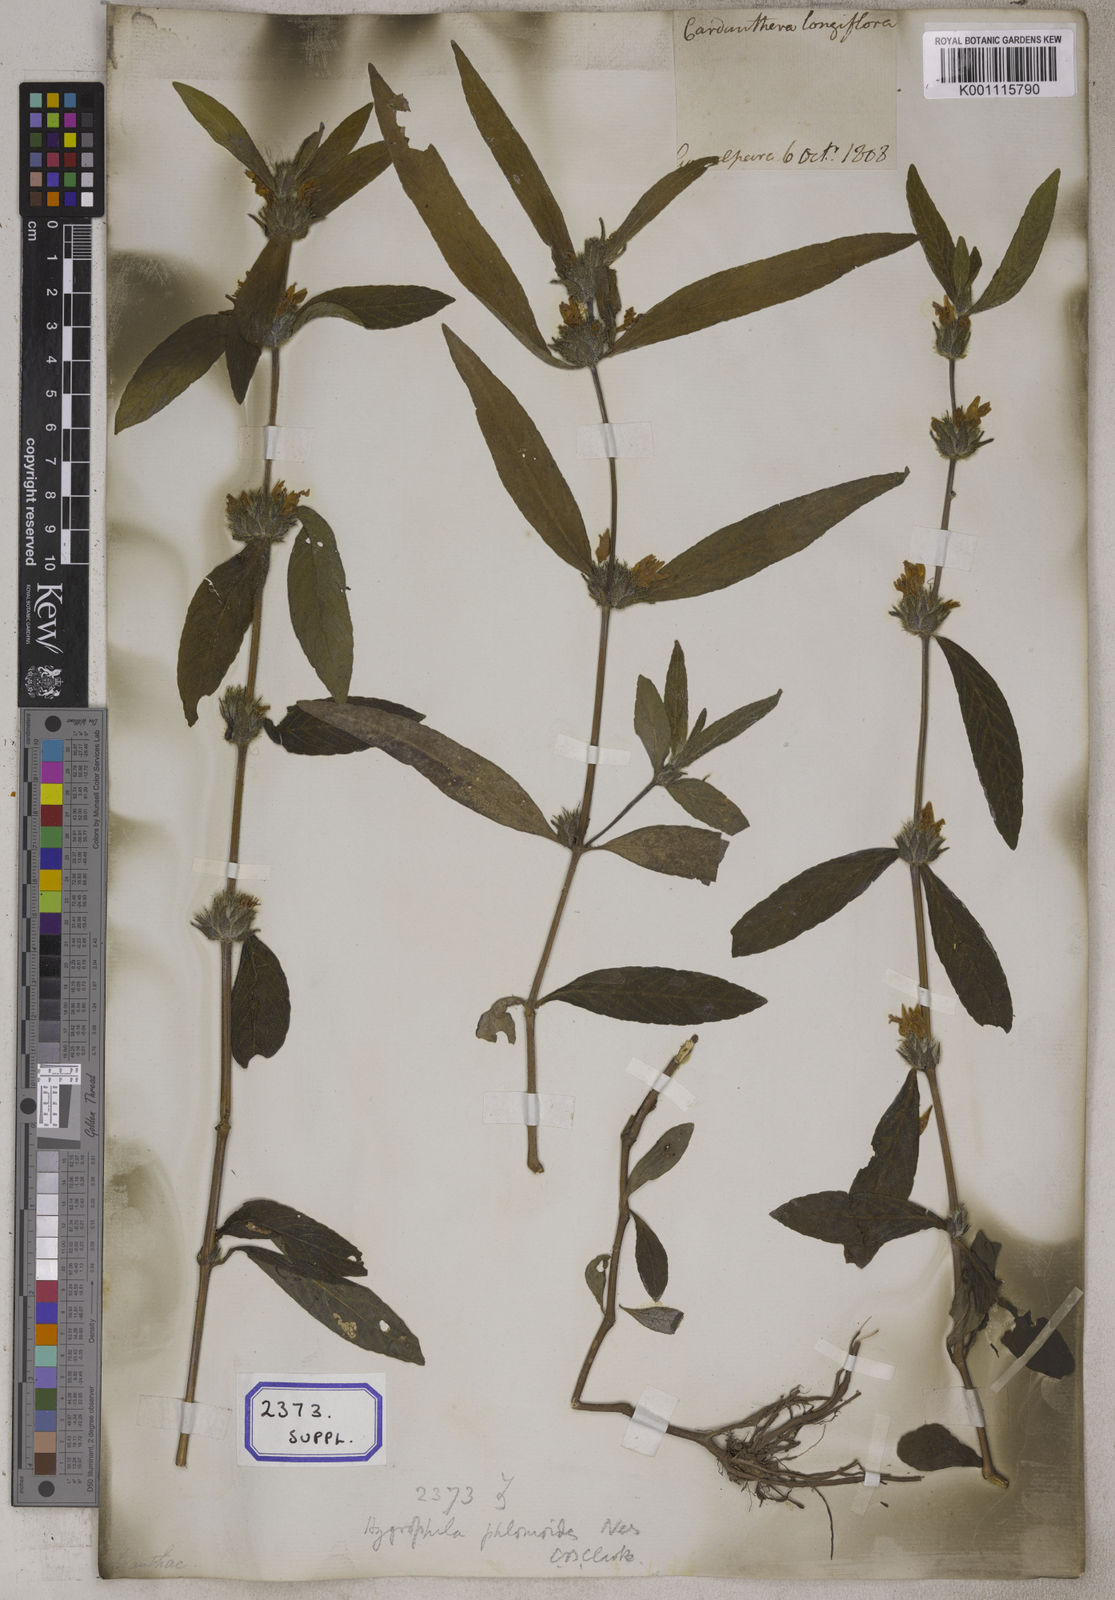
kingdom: Plantae
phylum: Tracheophyta
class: Magnoliopsida
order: Lamiales
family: Acanthaceae
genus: Hygrophila
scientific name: Hygrophila erecta
